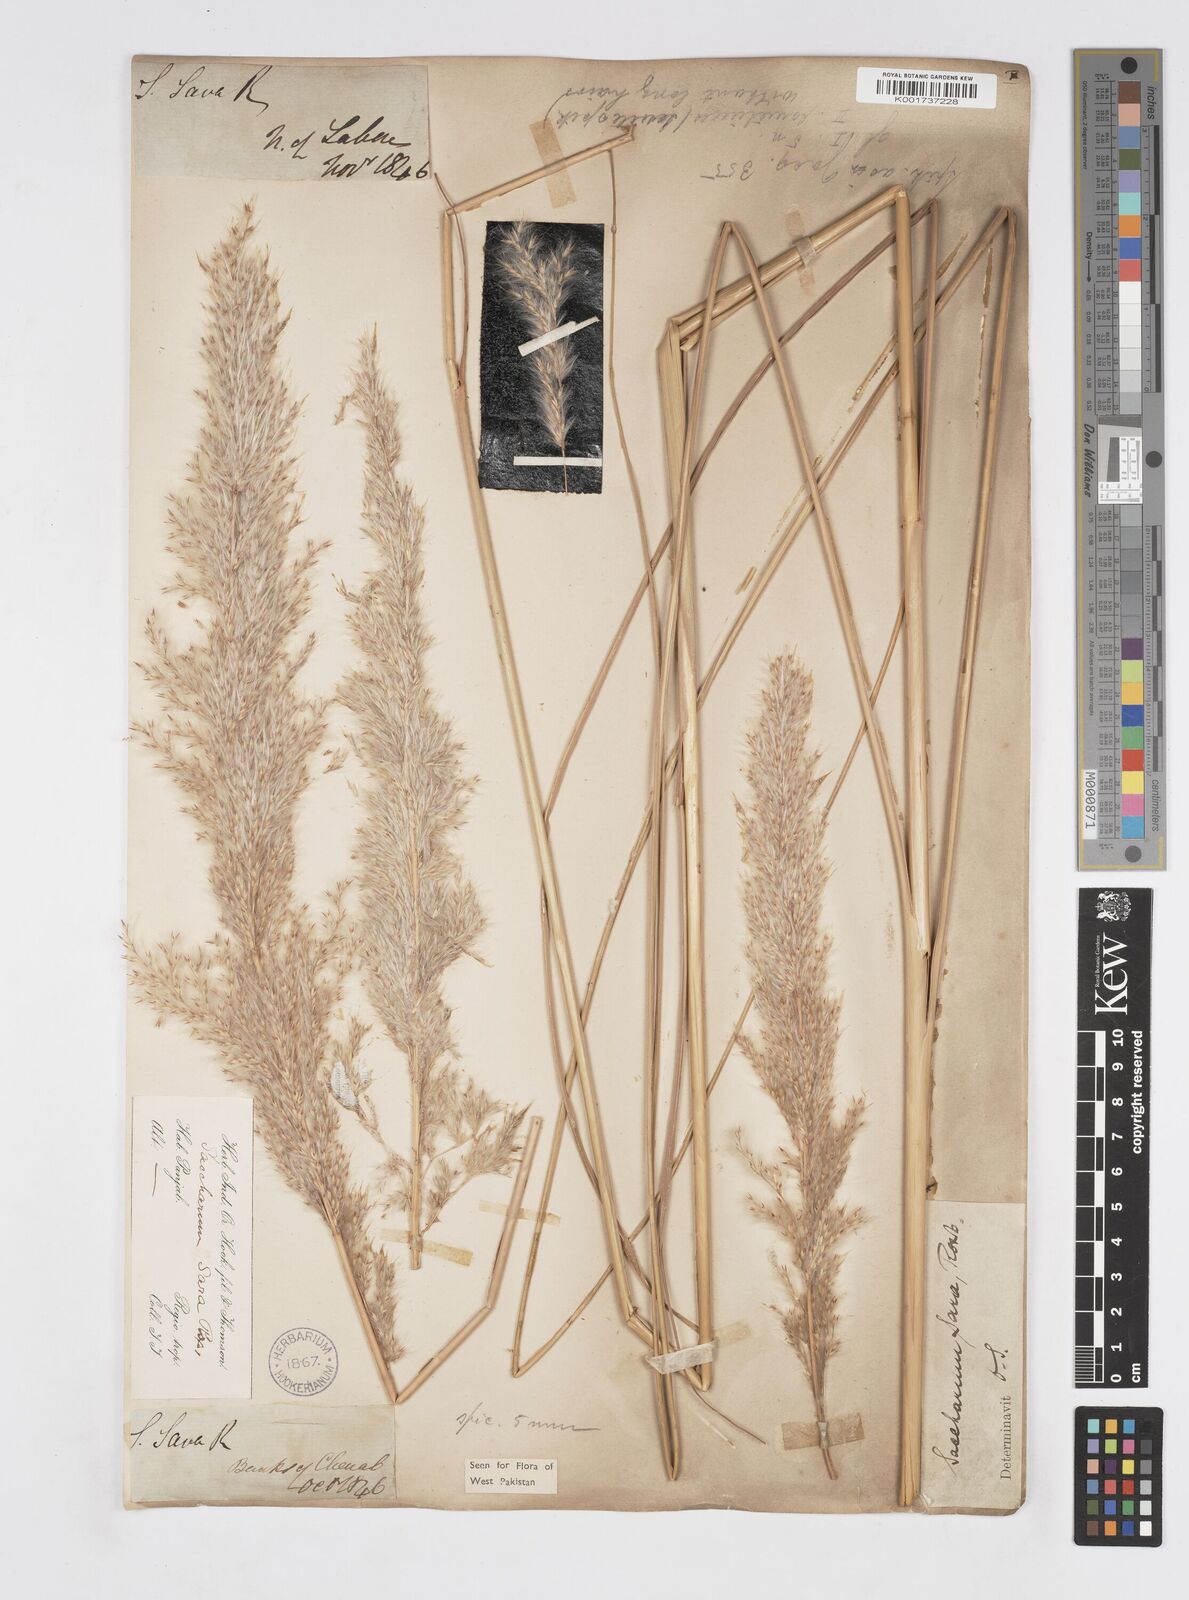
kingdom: Plantae
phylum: Tracheophyta
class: Liliopsida
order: Poales
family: Poaceae
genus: Tripidium
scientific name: Tripidium bengalense
